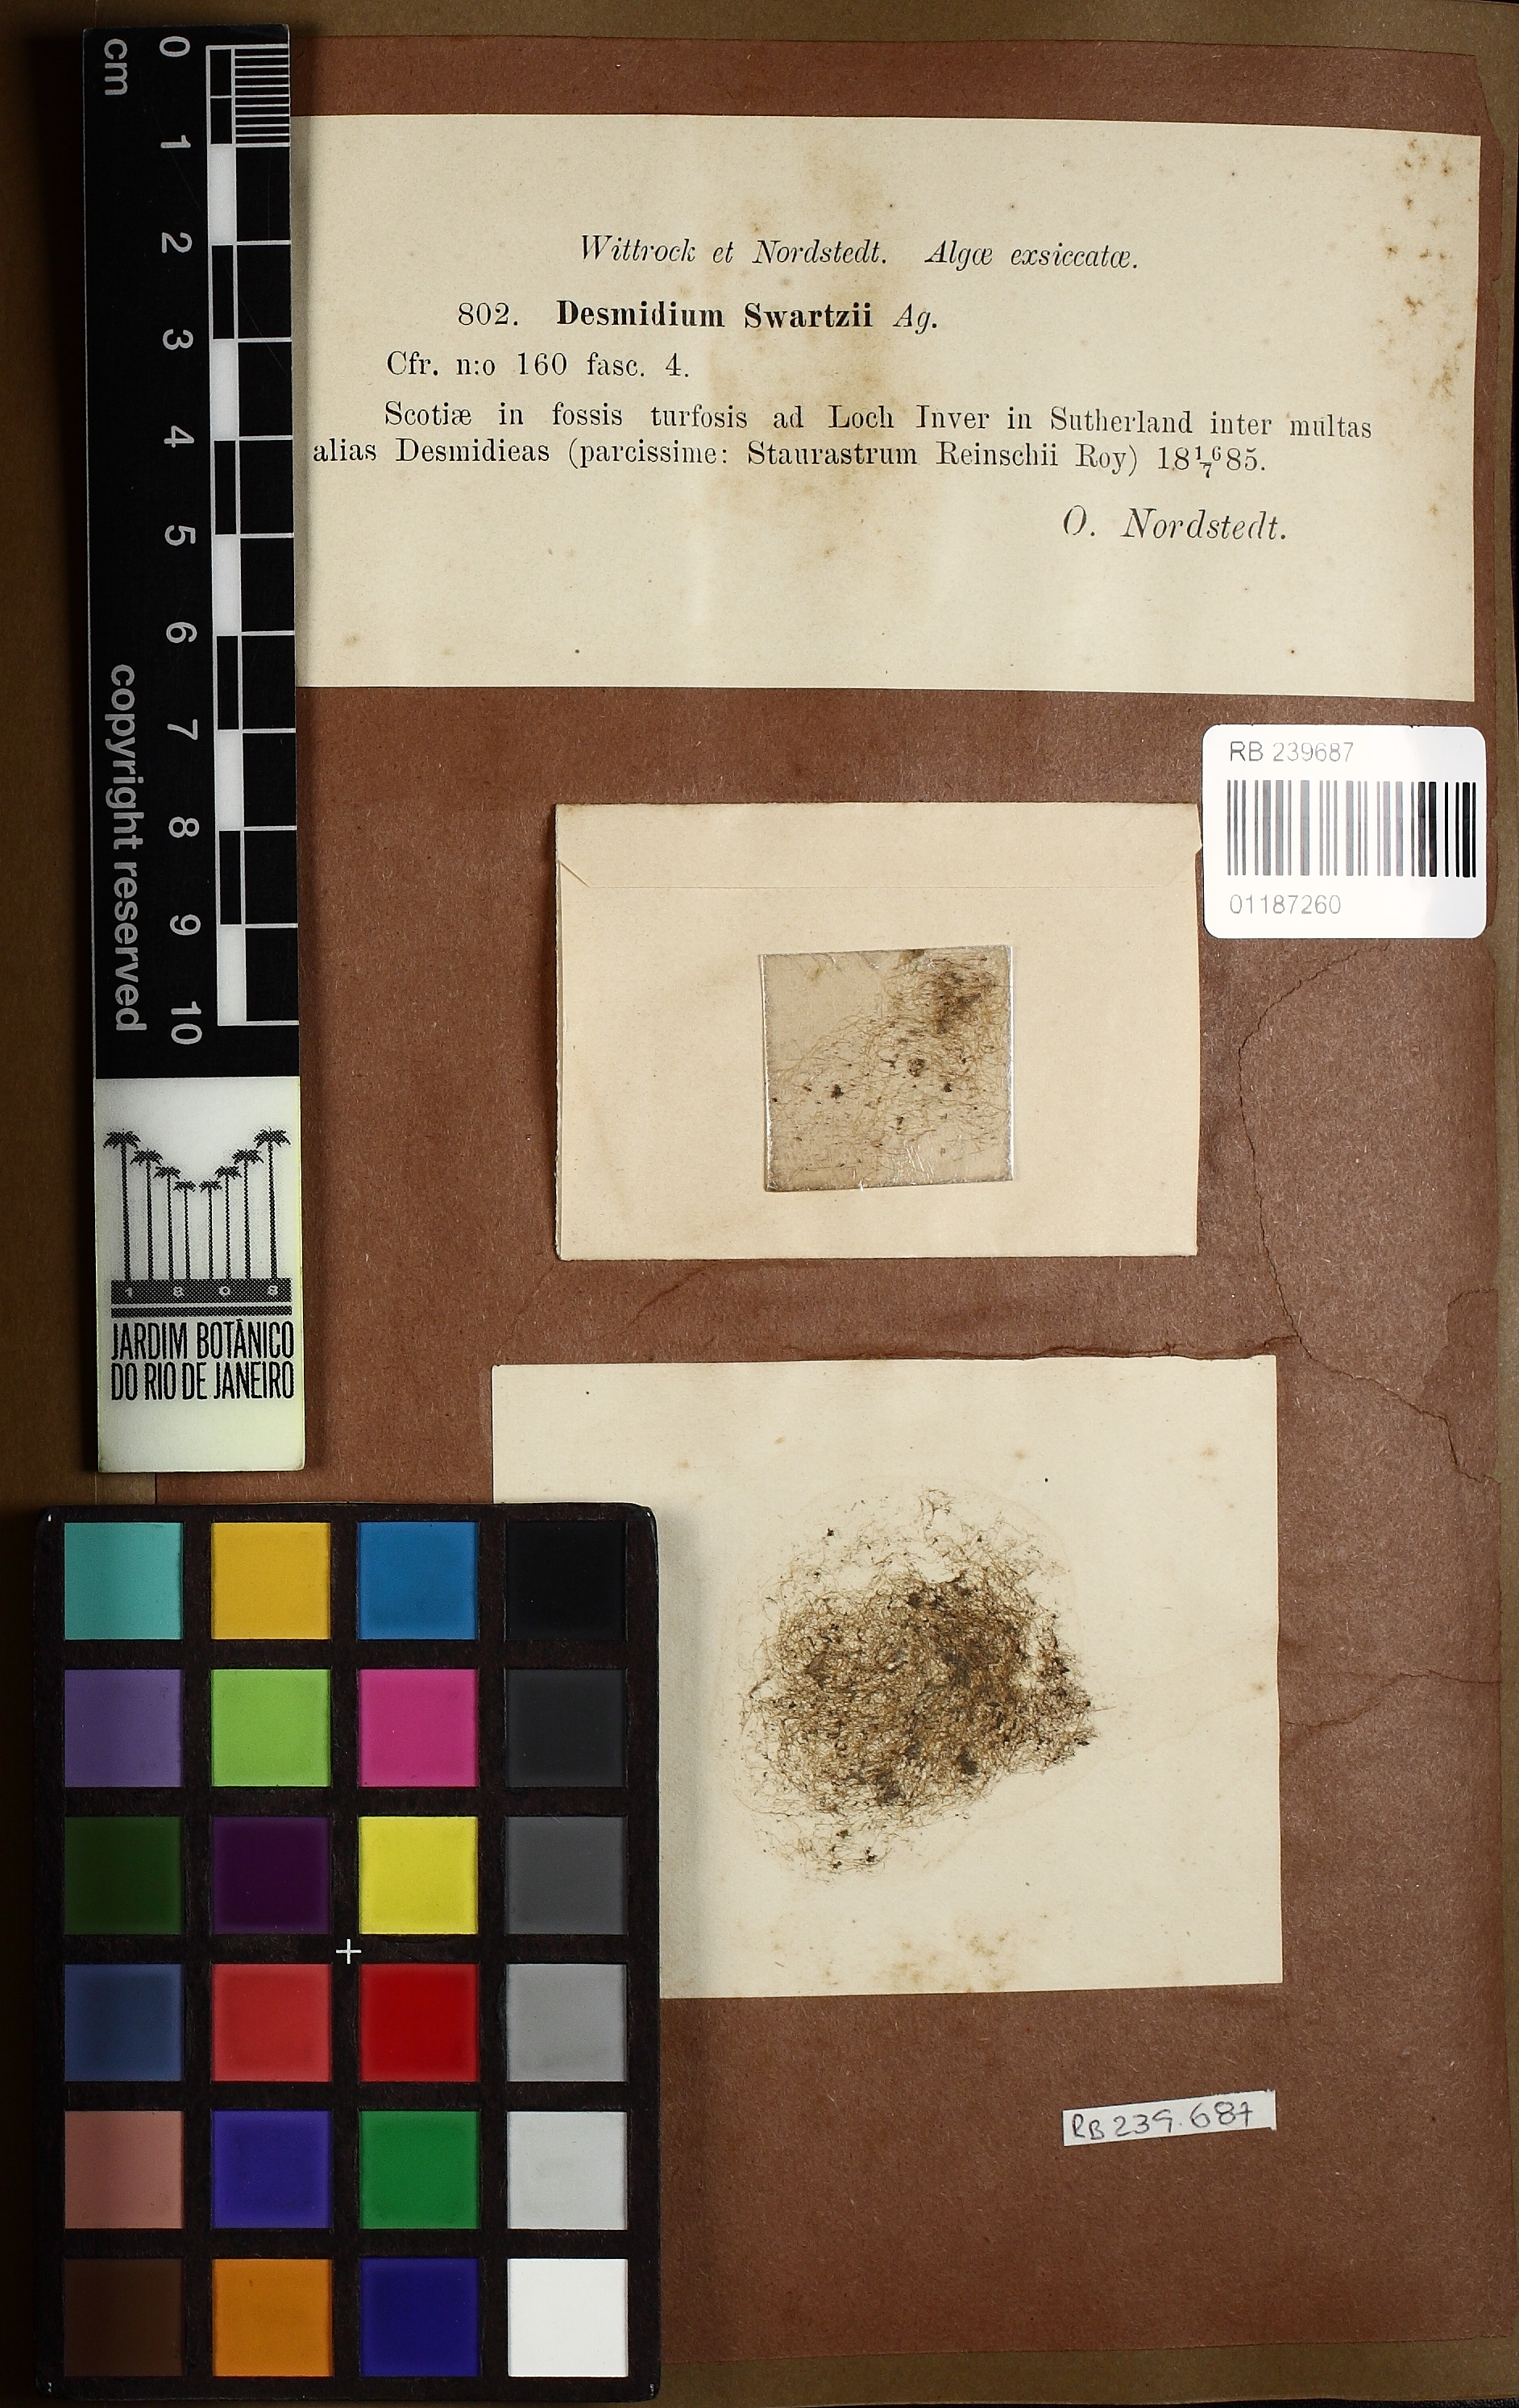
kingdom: Plantae
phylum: Charophyta
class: Conjugatophyceae
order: Desmidiales
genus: Desmidium
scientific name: Desmidium swartzii
